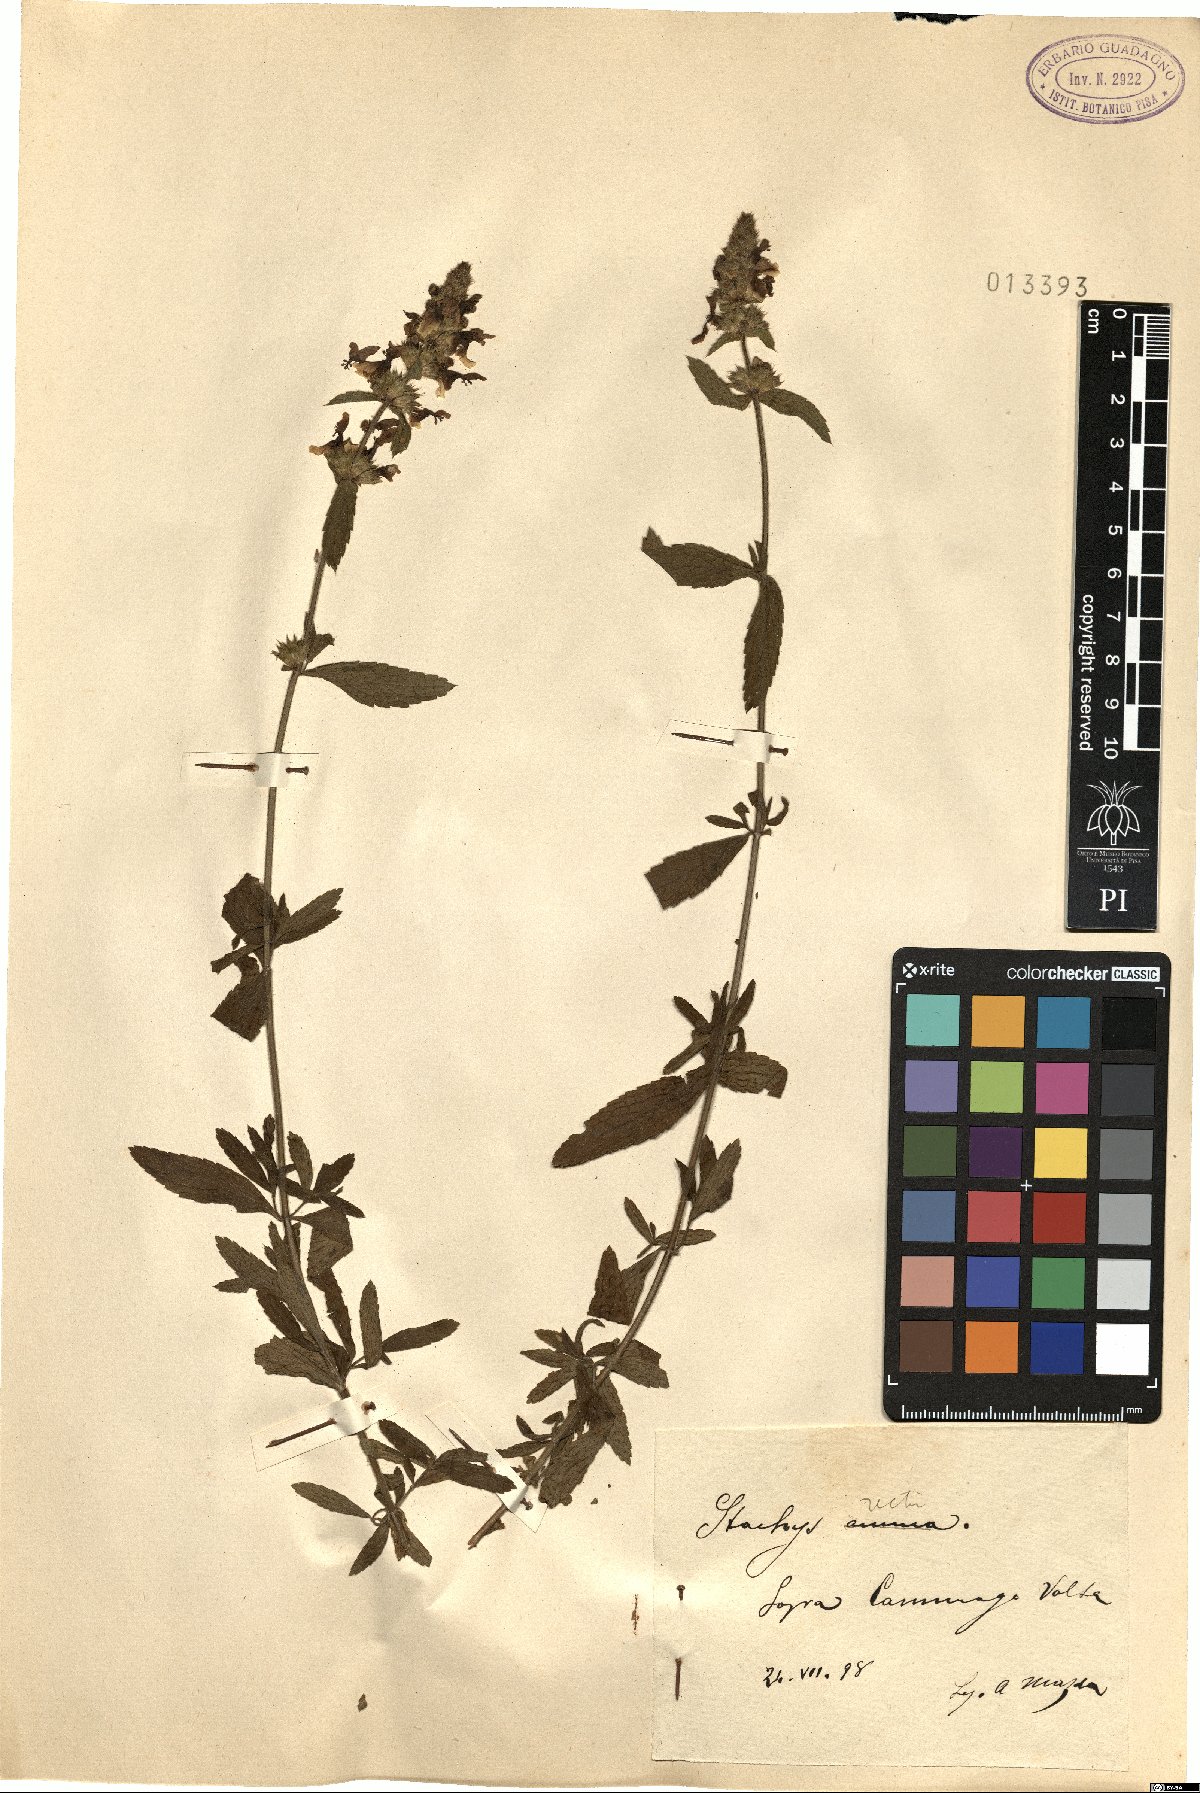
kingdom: Plantae
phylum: Tracheophyta
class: Magnoliopsida
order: Lamiales
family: Lamiaceae
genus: Stachys
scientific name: Stachys recta
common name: Perennial yellow-woundwort
